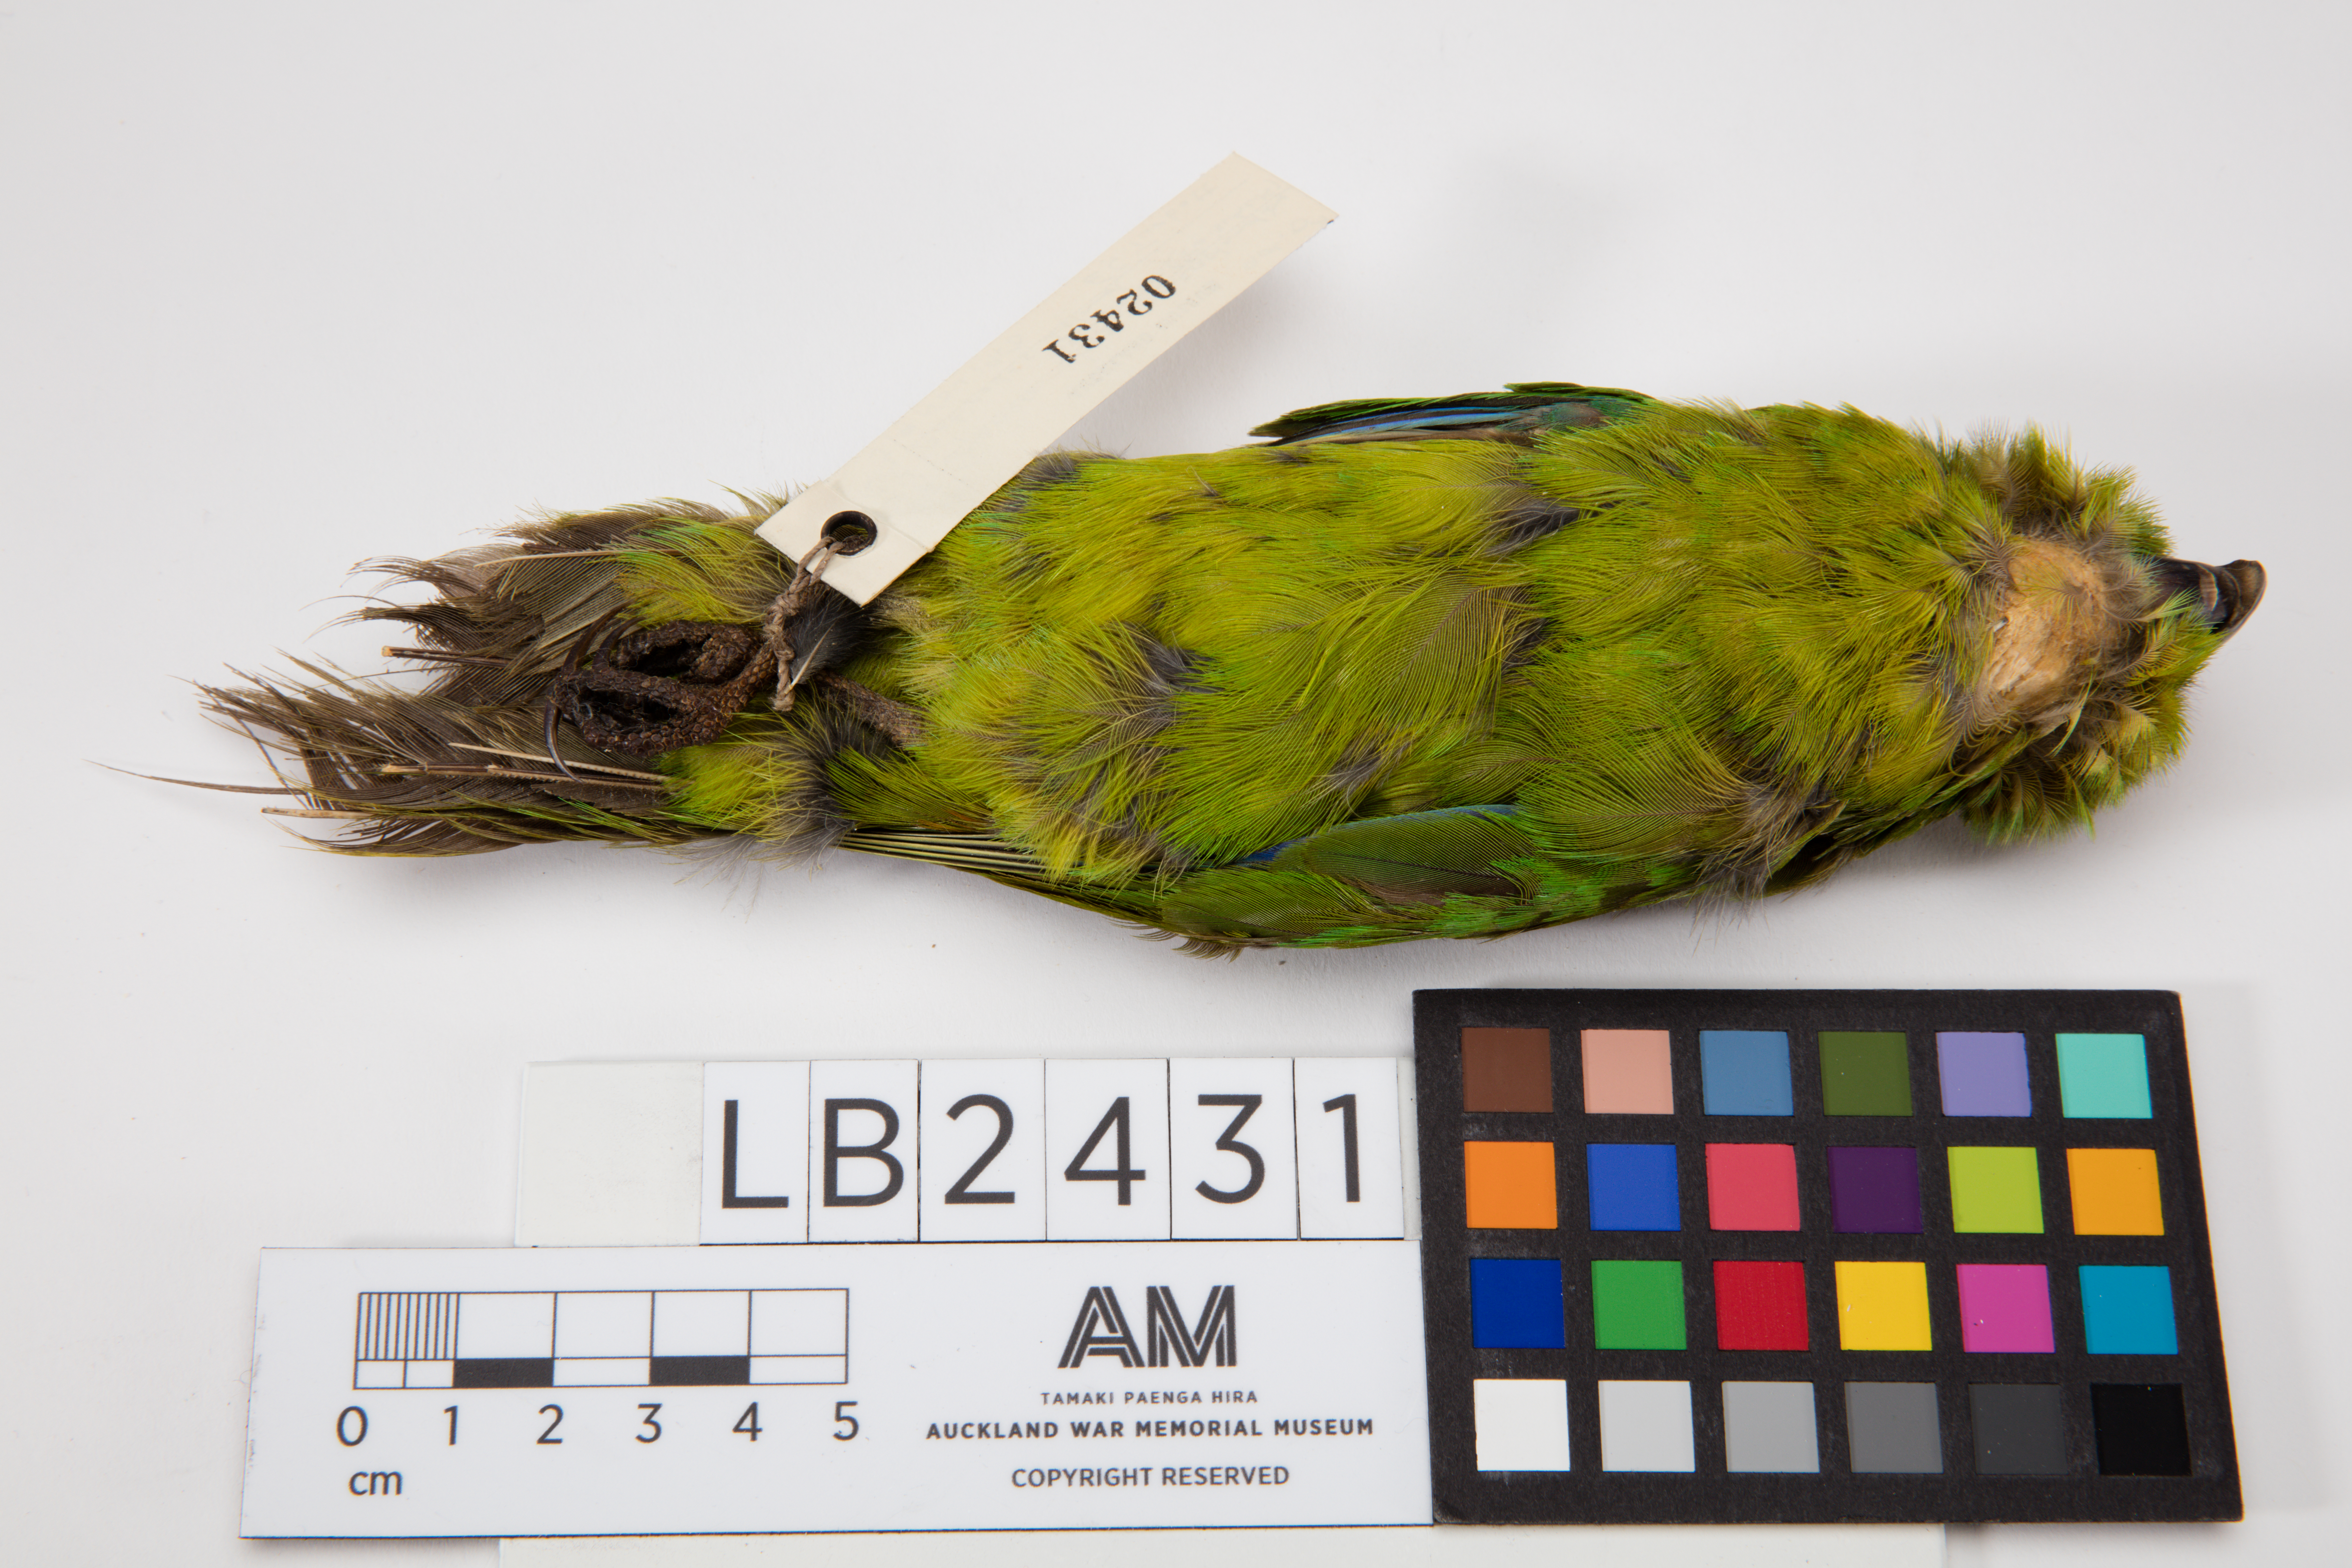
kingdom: Animalia
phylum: Chordata
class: Aves
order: Psittaciformes
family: Psittacidae
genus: Cyanoramphus
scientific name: Cyanoramphus novaezelandiae
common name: Red-fronted parakeet
